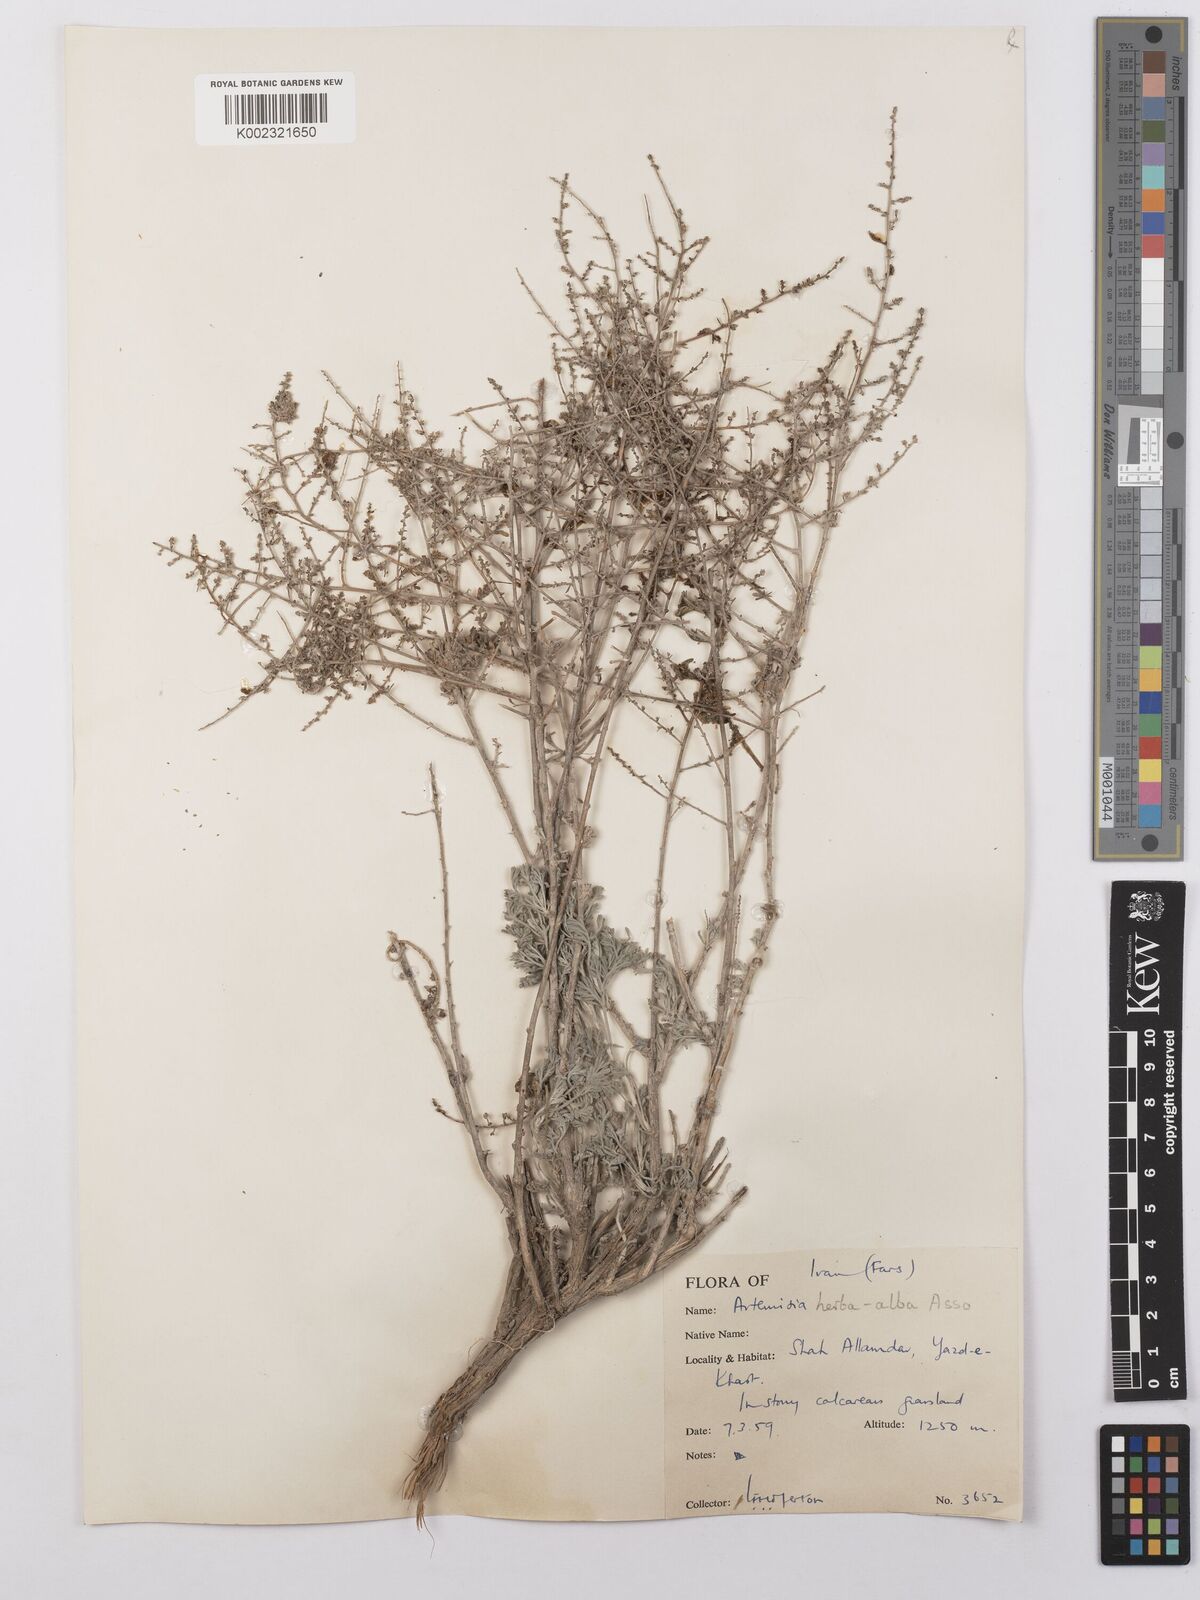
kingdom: Plantae
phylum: Tracheophyta
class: Magnoliopsida
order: Asterales
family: Asteraceae
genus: Artemisia
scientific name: Artemisia herba-alba
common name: White wormwood
